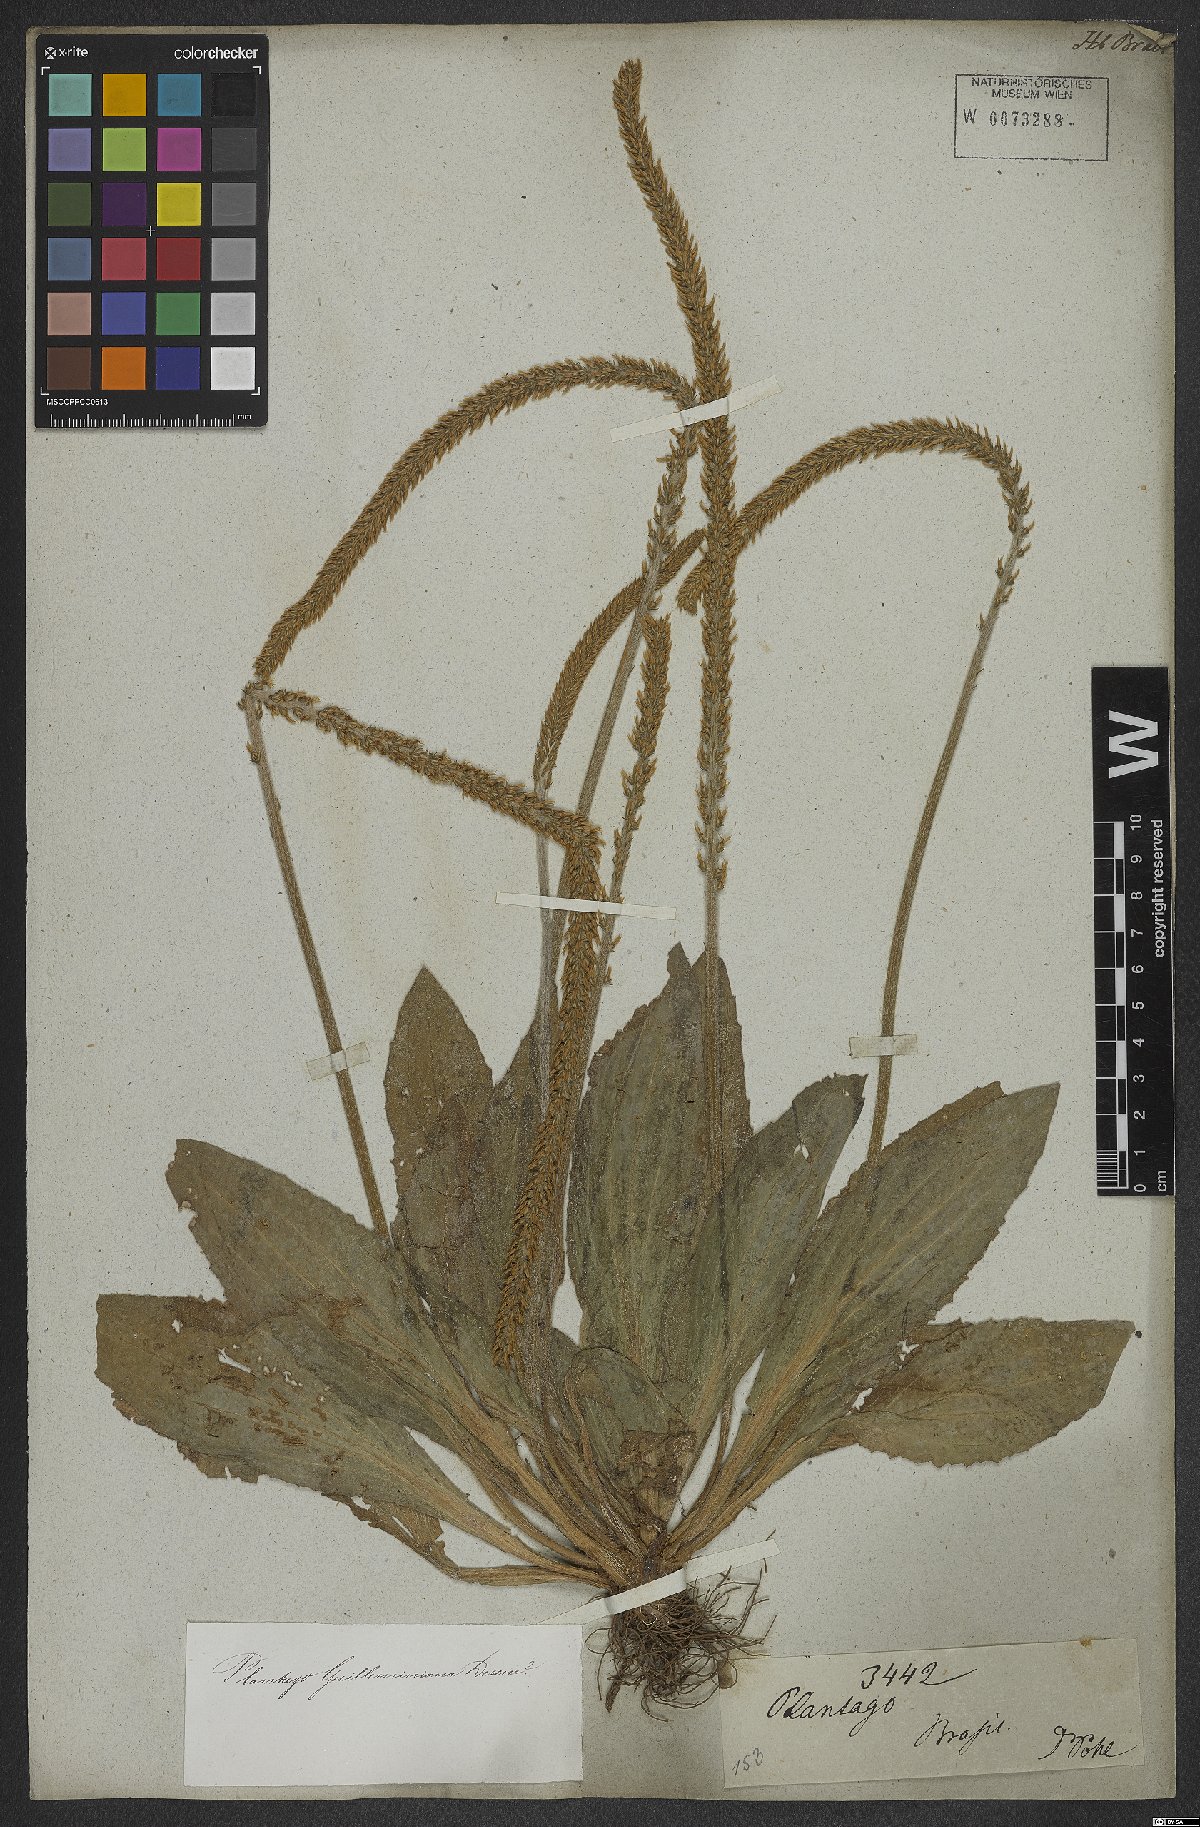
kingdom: Plantae
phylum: Tracheophyta
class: Magnoliopsida
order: Lamiales
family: Plantaginaceae
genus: Plantago
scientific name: Plantago guilleminiana
